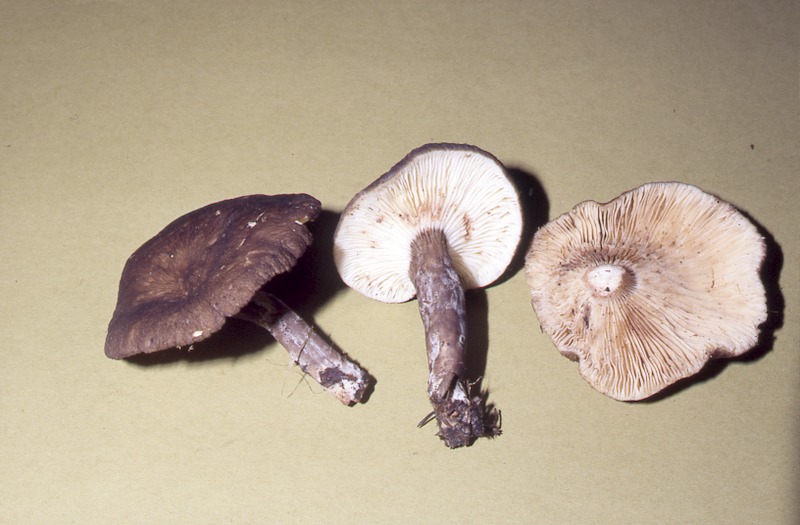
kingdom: Fungi
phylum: Basidiomycota
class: Agaricomycetes
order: Russulales
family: Russulaceae
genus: Lactarius
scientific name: Lactarius lignyotus
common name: Velvet milkcap
